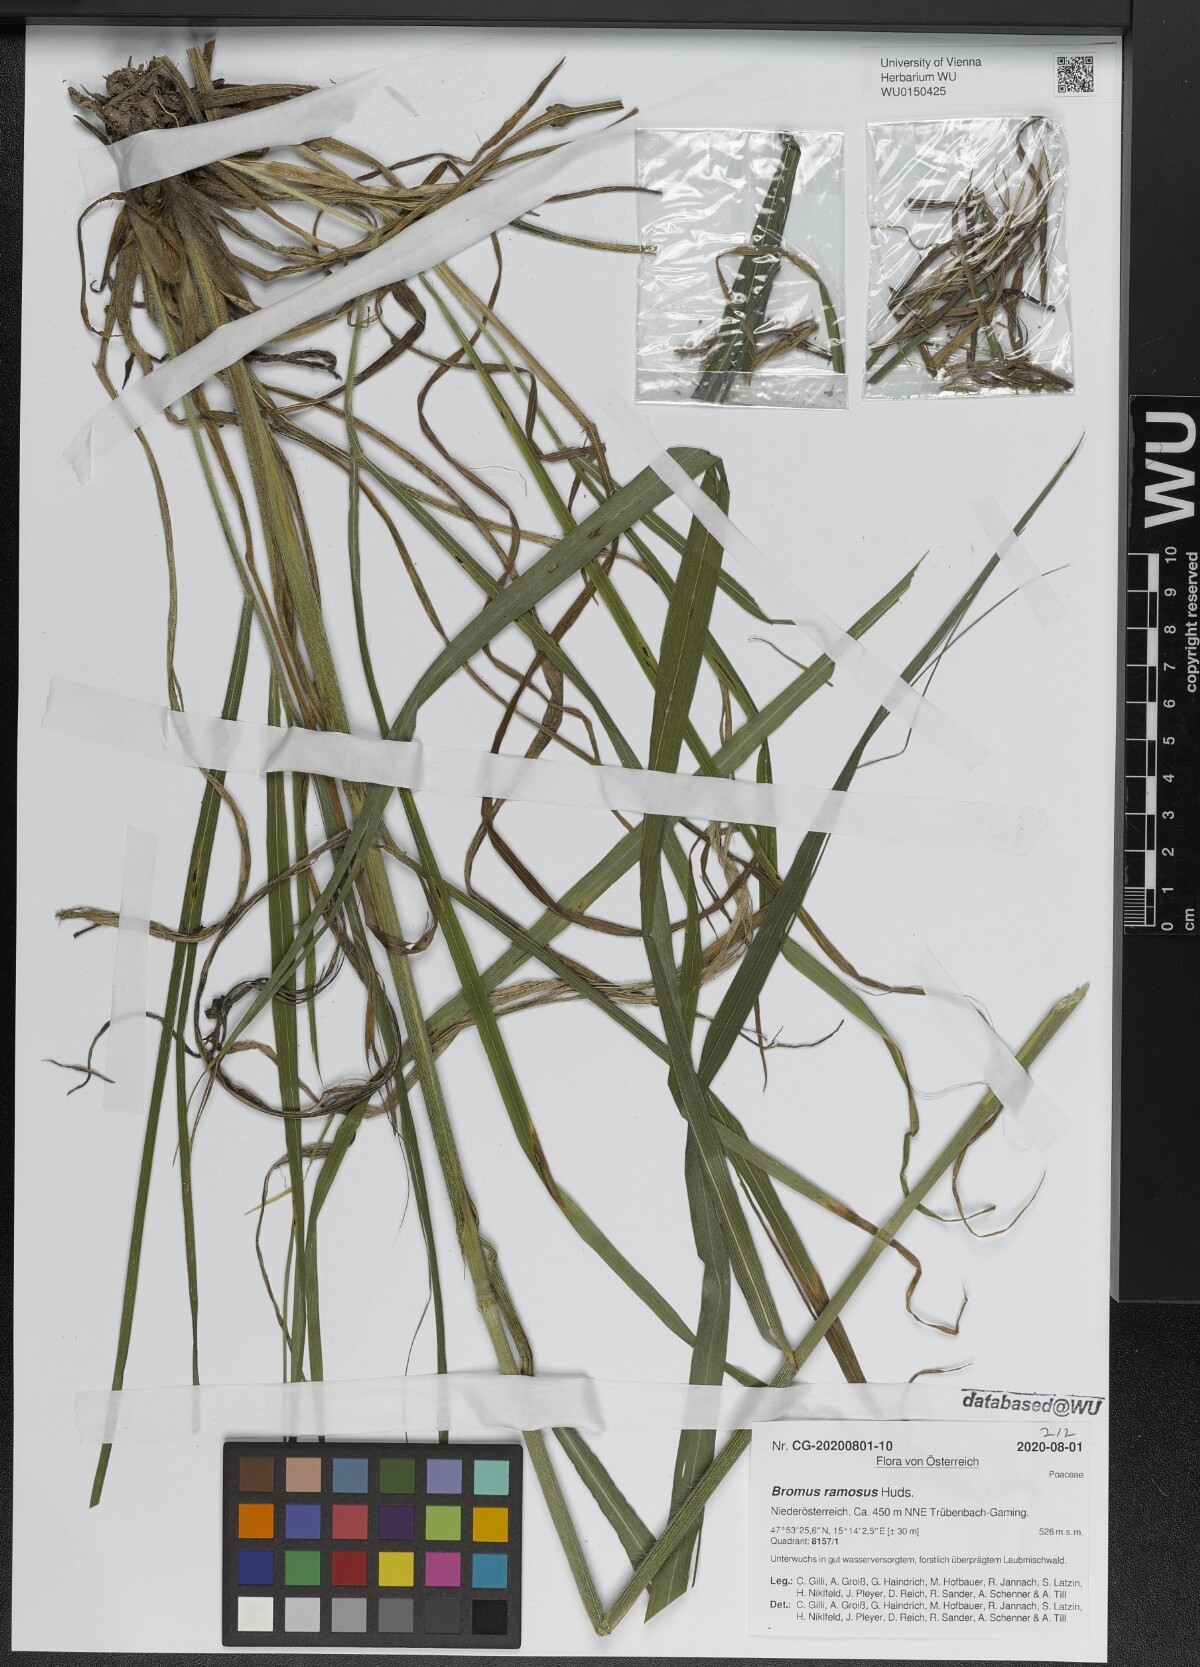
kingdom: Plantae
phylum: Tracheophyta
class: Liliopsida
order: Poales
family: Poaceae
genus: Bromus
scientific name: Bromus ramosus
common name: Hairy brome
